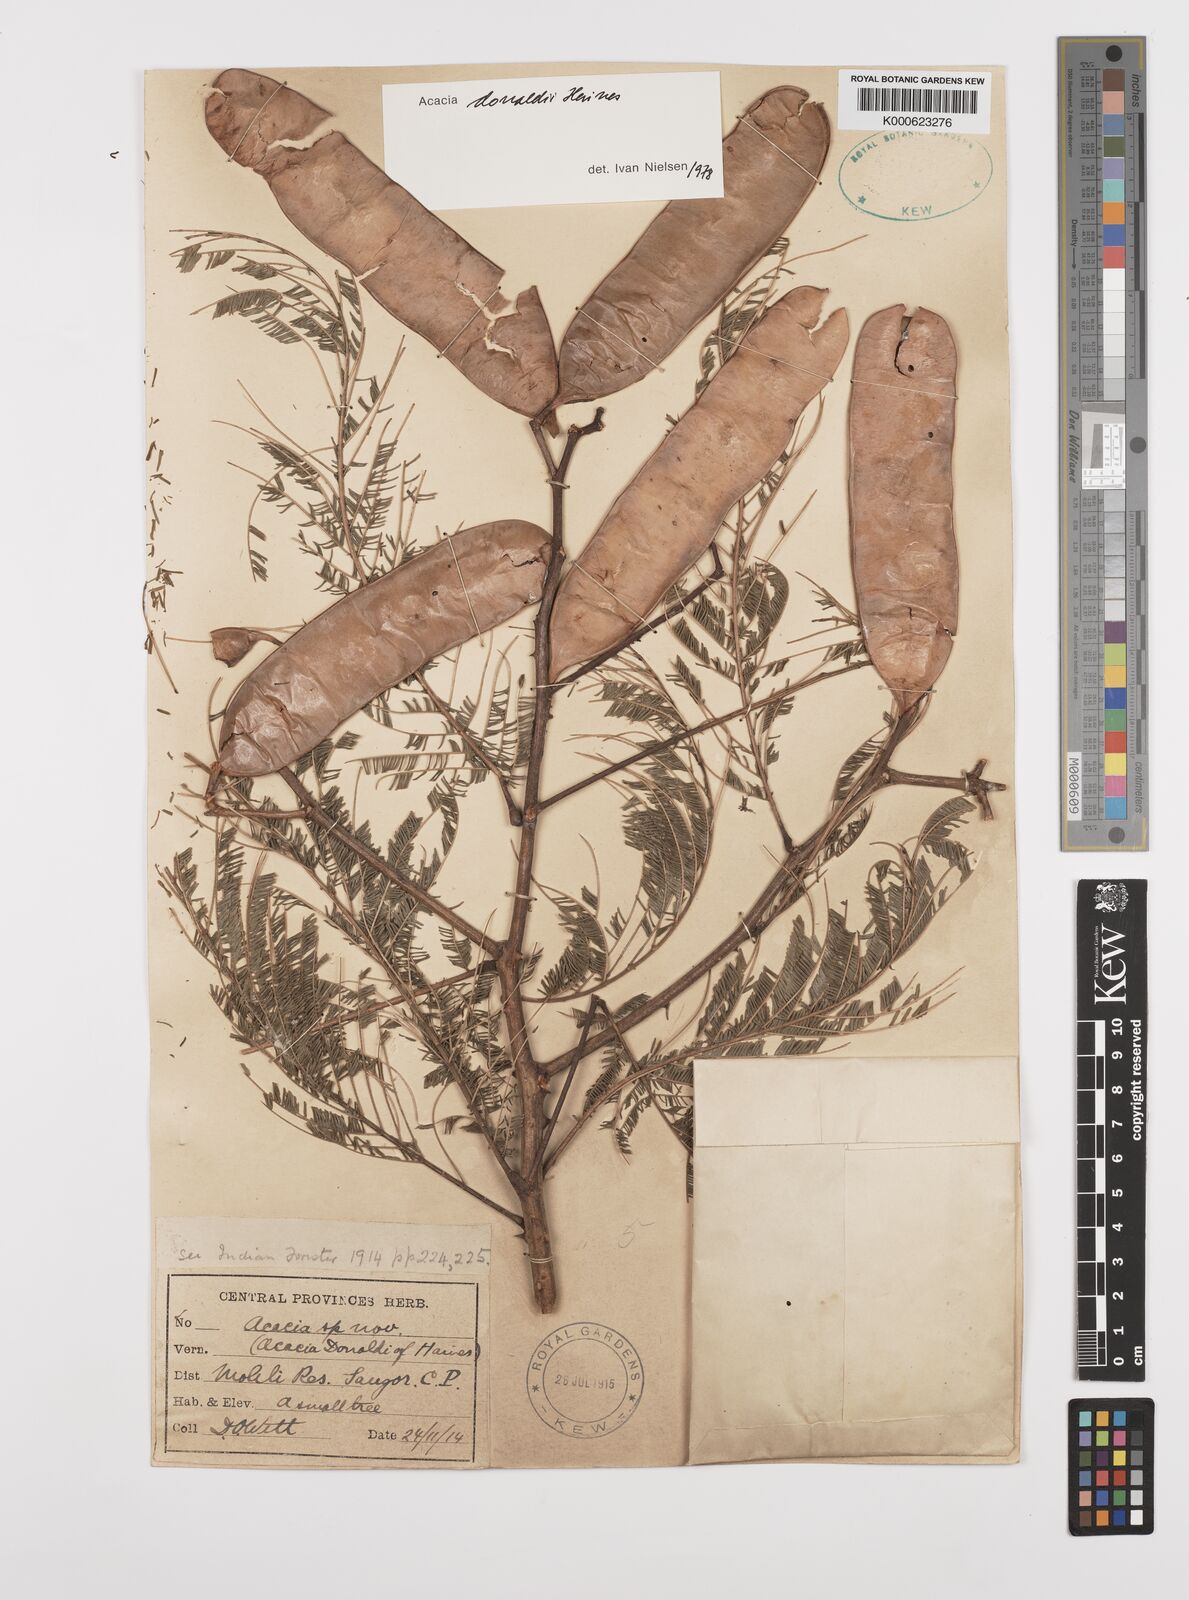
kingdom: Plantae
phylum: Tracheophyta
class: Magnoliopsida
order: Fabales
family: Fabaceae
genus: Senegalia
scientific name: Senegalia donaldi
